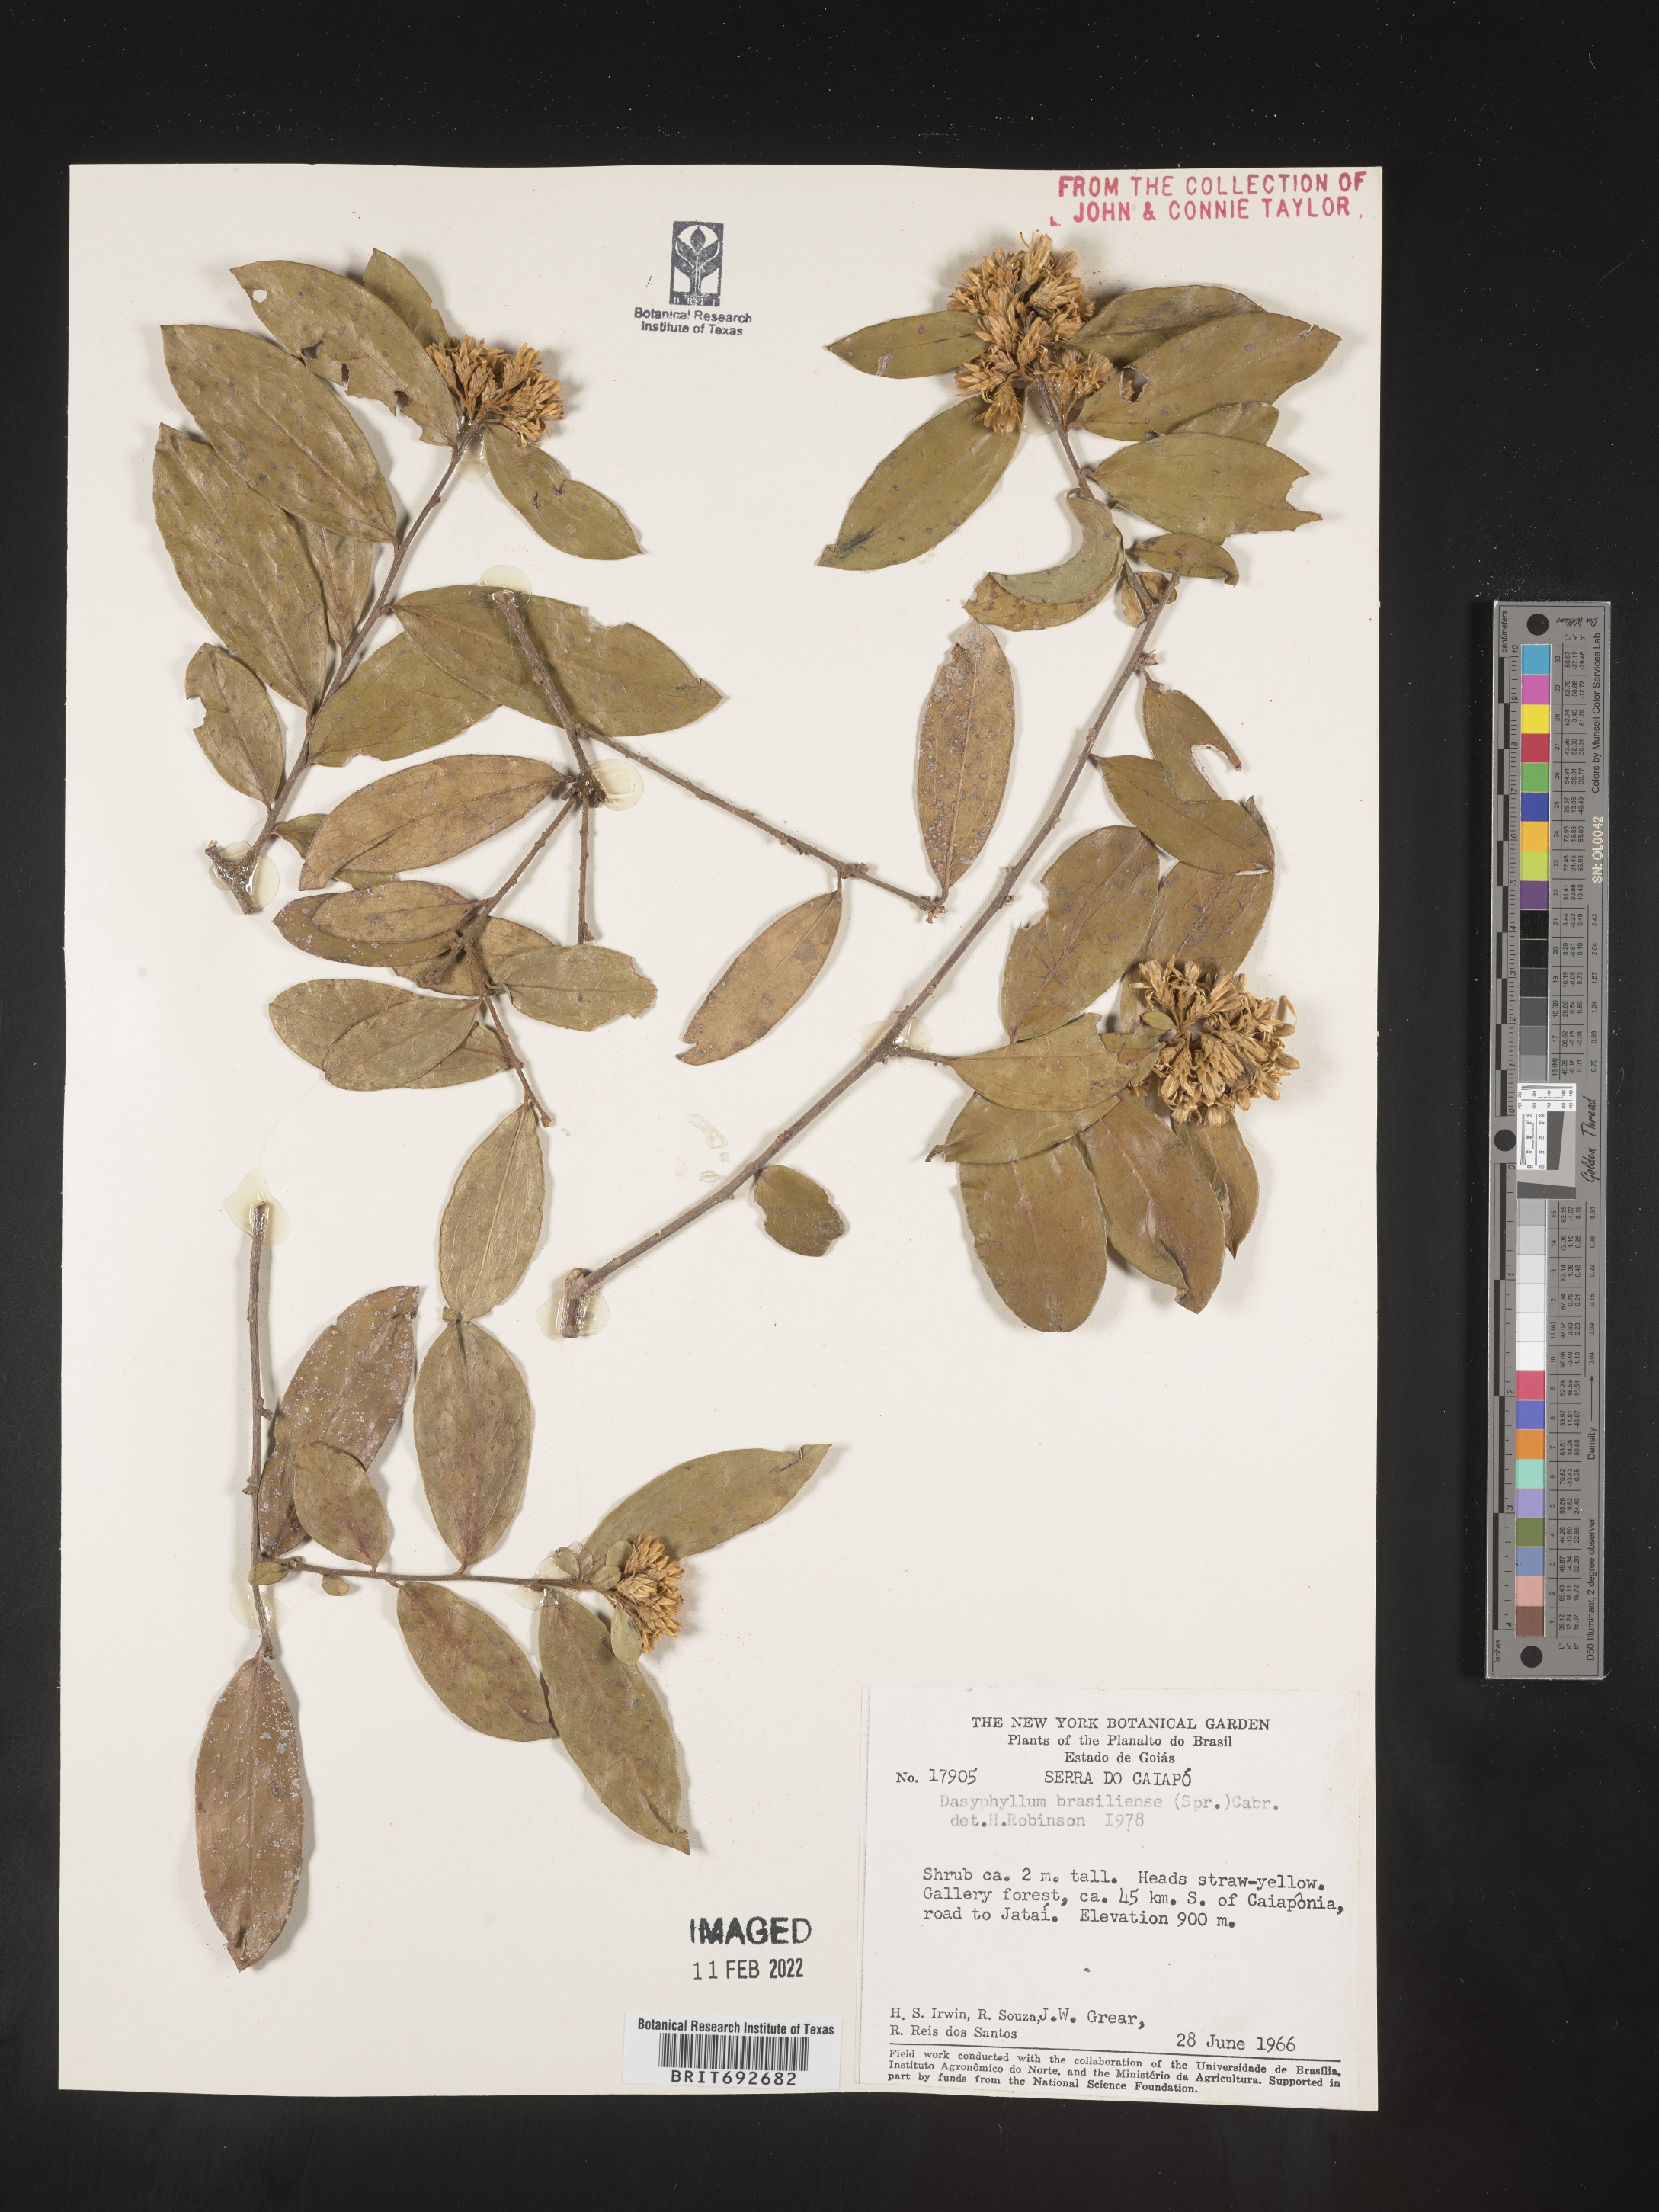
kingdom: Plantae
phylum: Tracheophyta
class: Magnoliopsida
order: Asterales
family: Asteraceae
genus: Dasyphyllum
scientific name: Dasyphyllum
